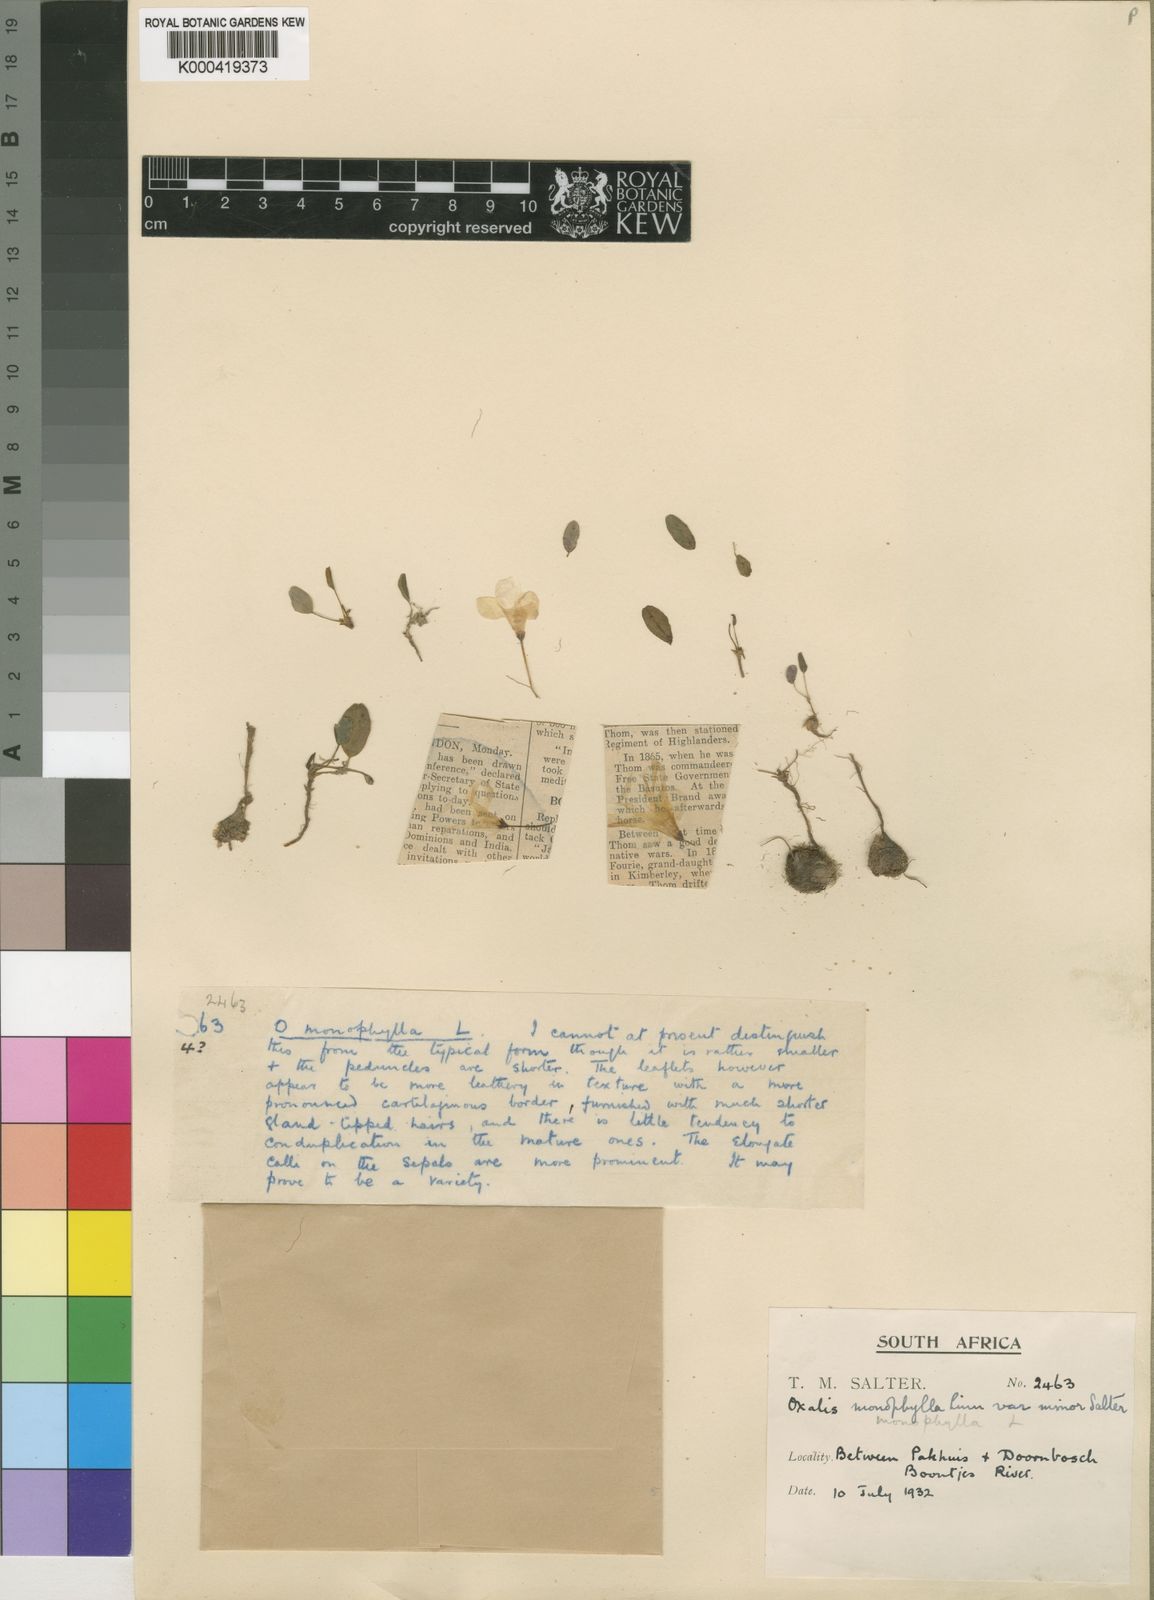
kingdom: Plantae
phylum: Tracheophyta
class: Magnoliopsida
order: Oxalidales
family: Oxalidaceae
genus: Oxalis
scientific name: Oxalis monophylla
